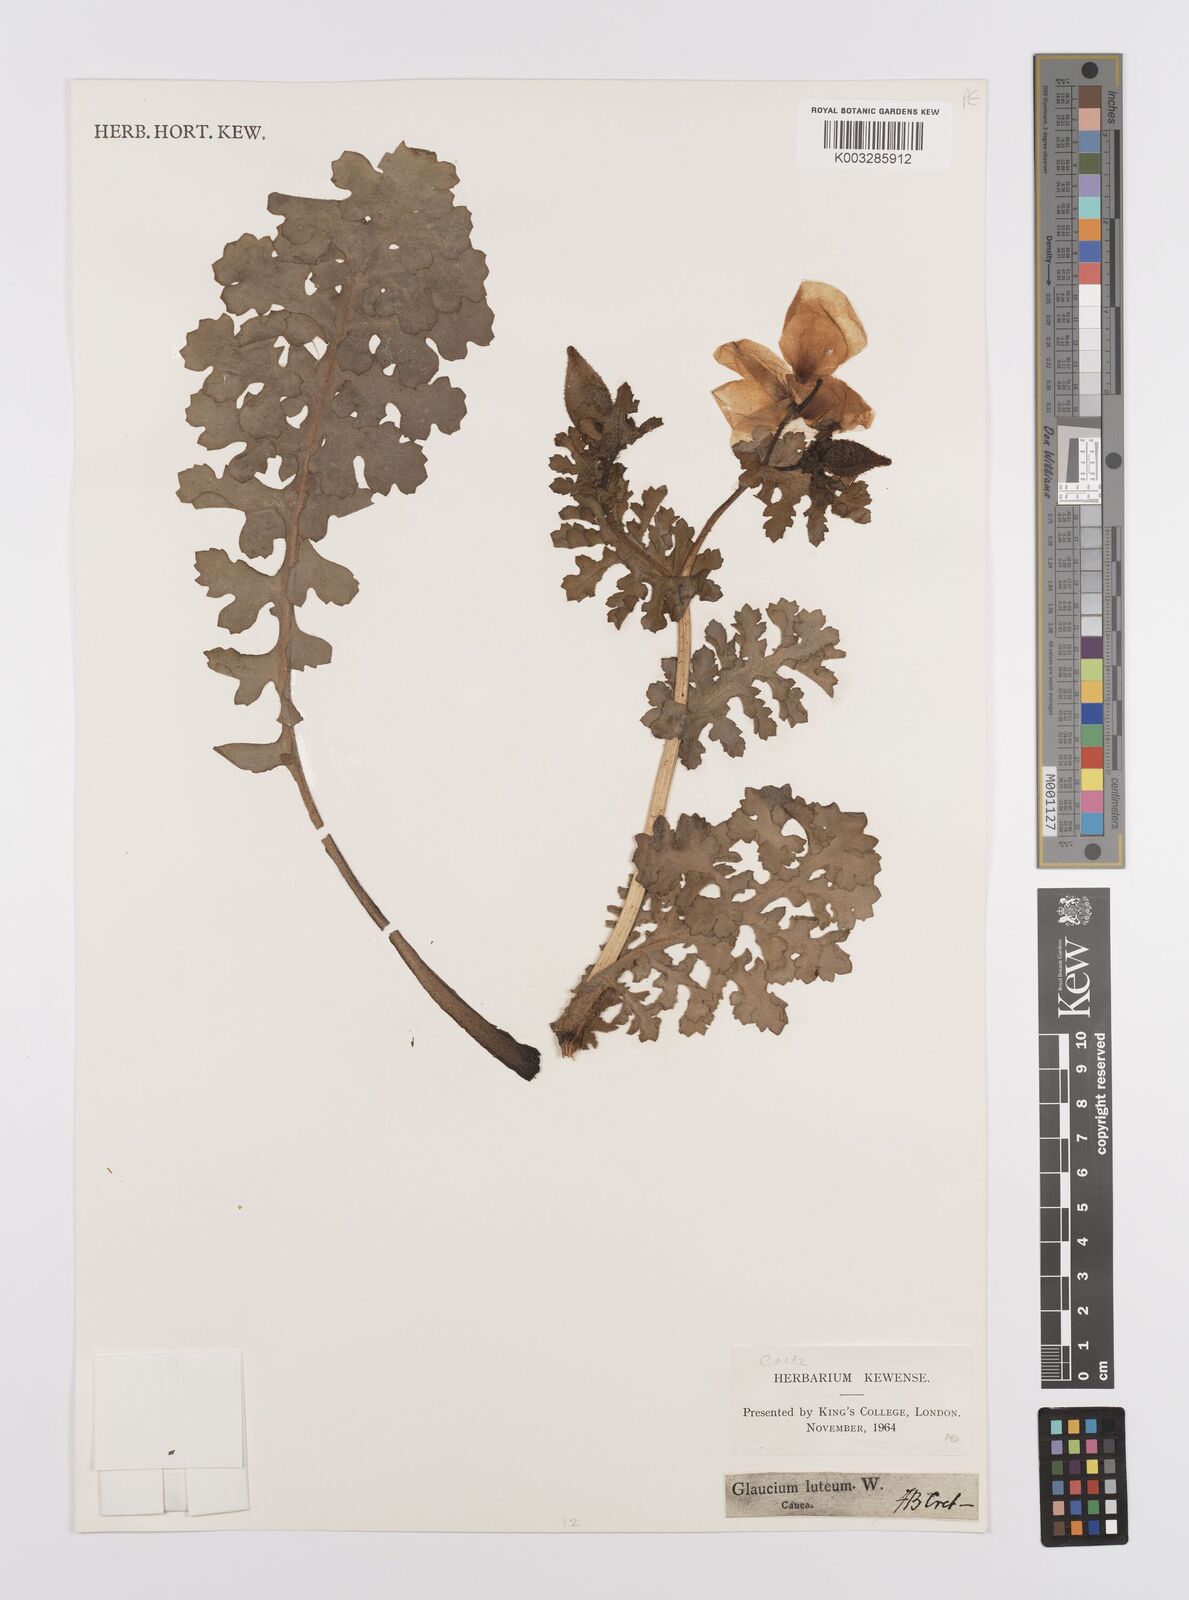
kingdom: Plantae
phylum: Tracheophyta
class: Magnoliopsida
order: Ranunculales
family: Papaveraceae
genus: Glaucium
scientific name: Glaucium flavum
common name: Yellow horned-poppy
